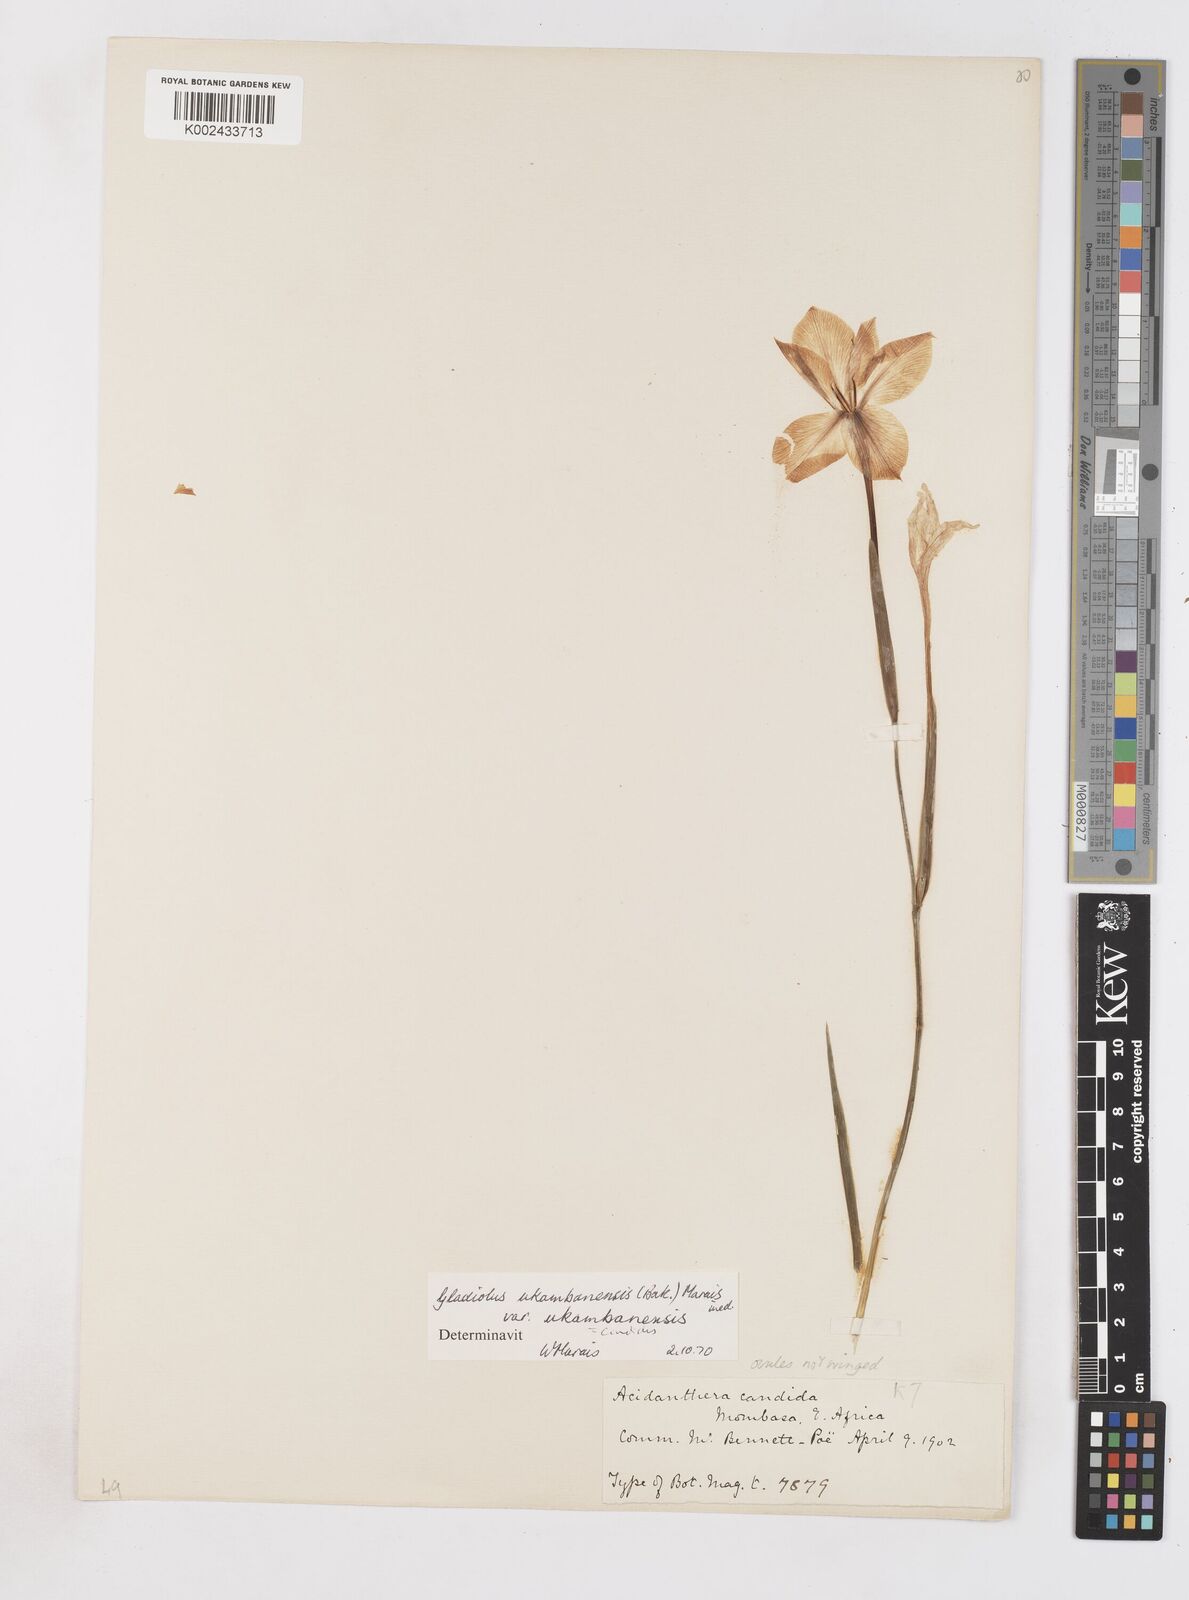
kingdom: Plantae
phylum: Tracheophyta
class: Liliopsida
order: Asparagales
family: Iridaceae
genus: Gladiolus
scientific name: Gladiolus candidus
